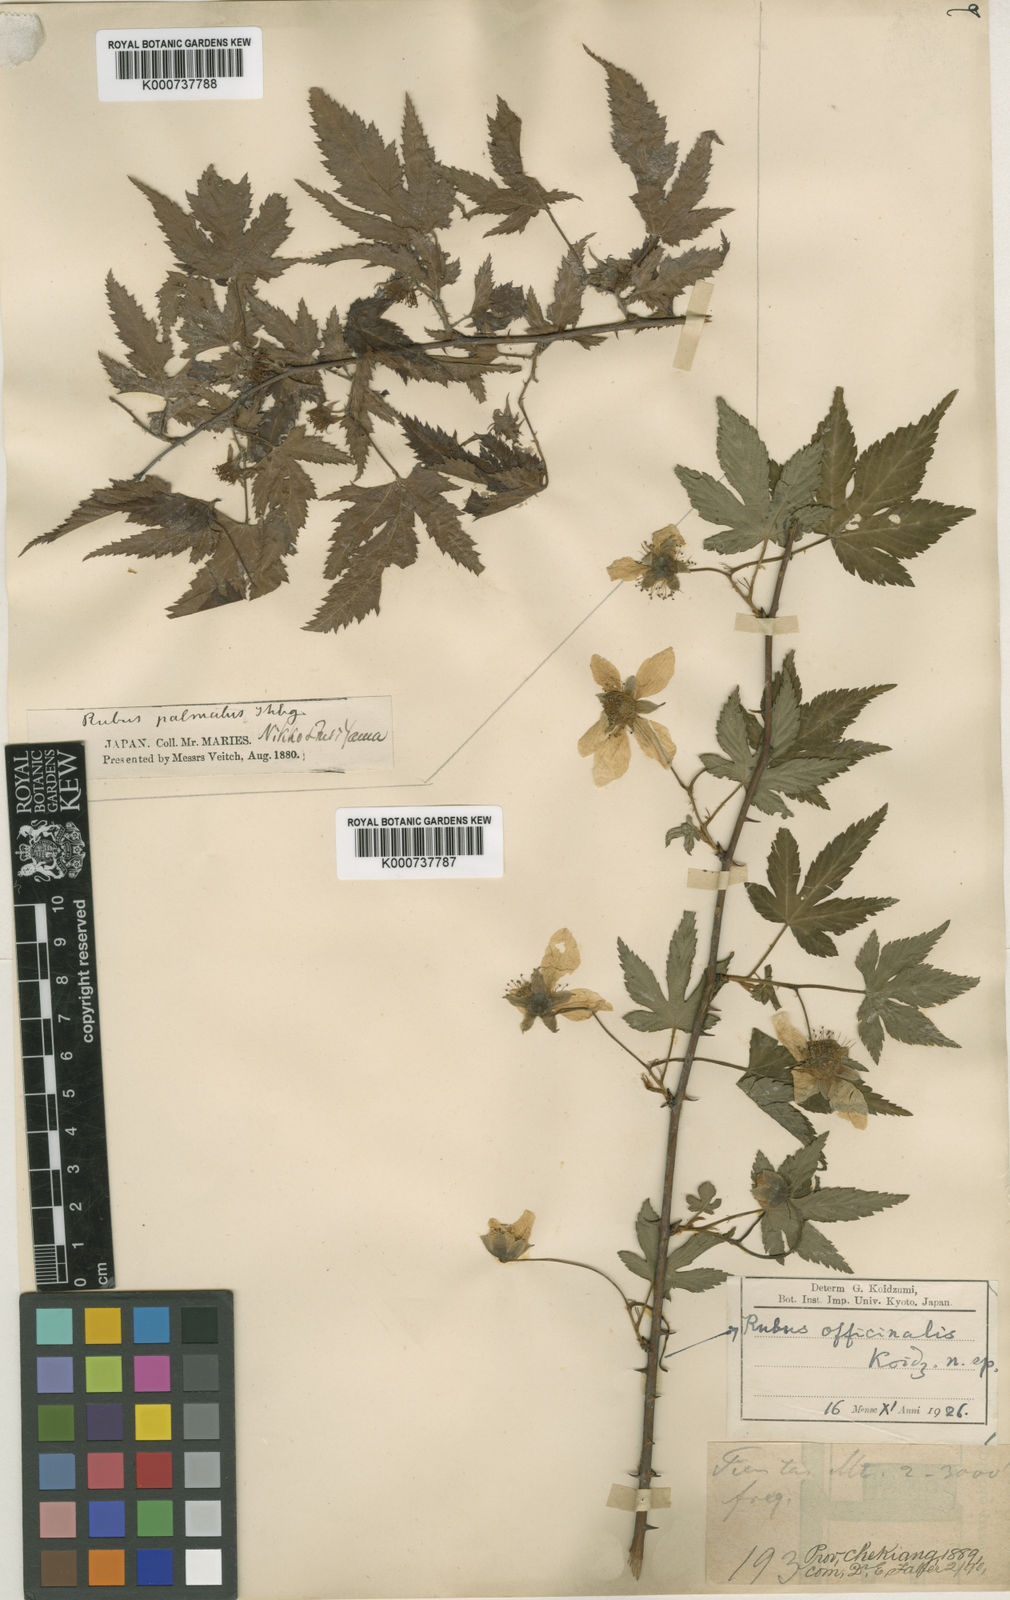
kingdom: Plantae
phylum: Tracheophyta
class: Magnoliopsida
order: Rosales
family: Rosaceae
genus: Rubus
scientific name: Rubus chingii
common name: Palm-leaf raspberry
